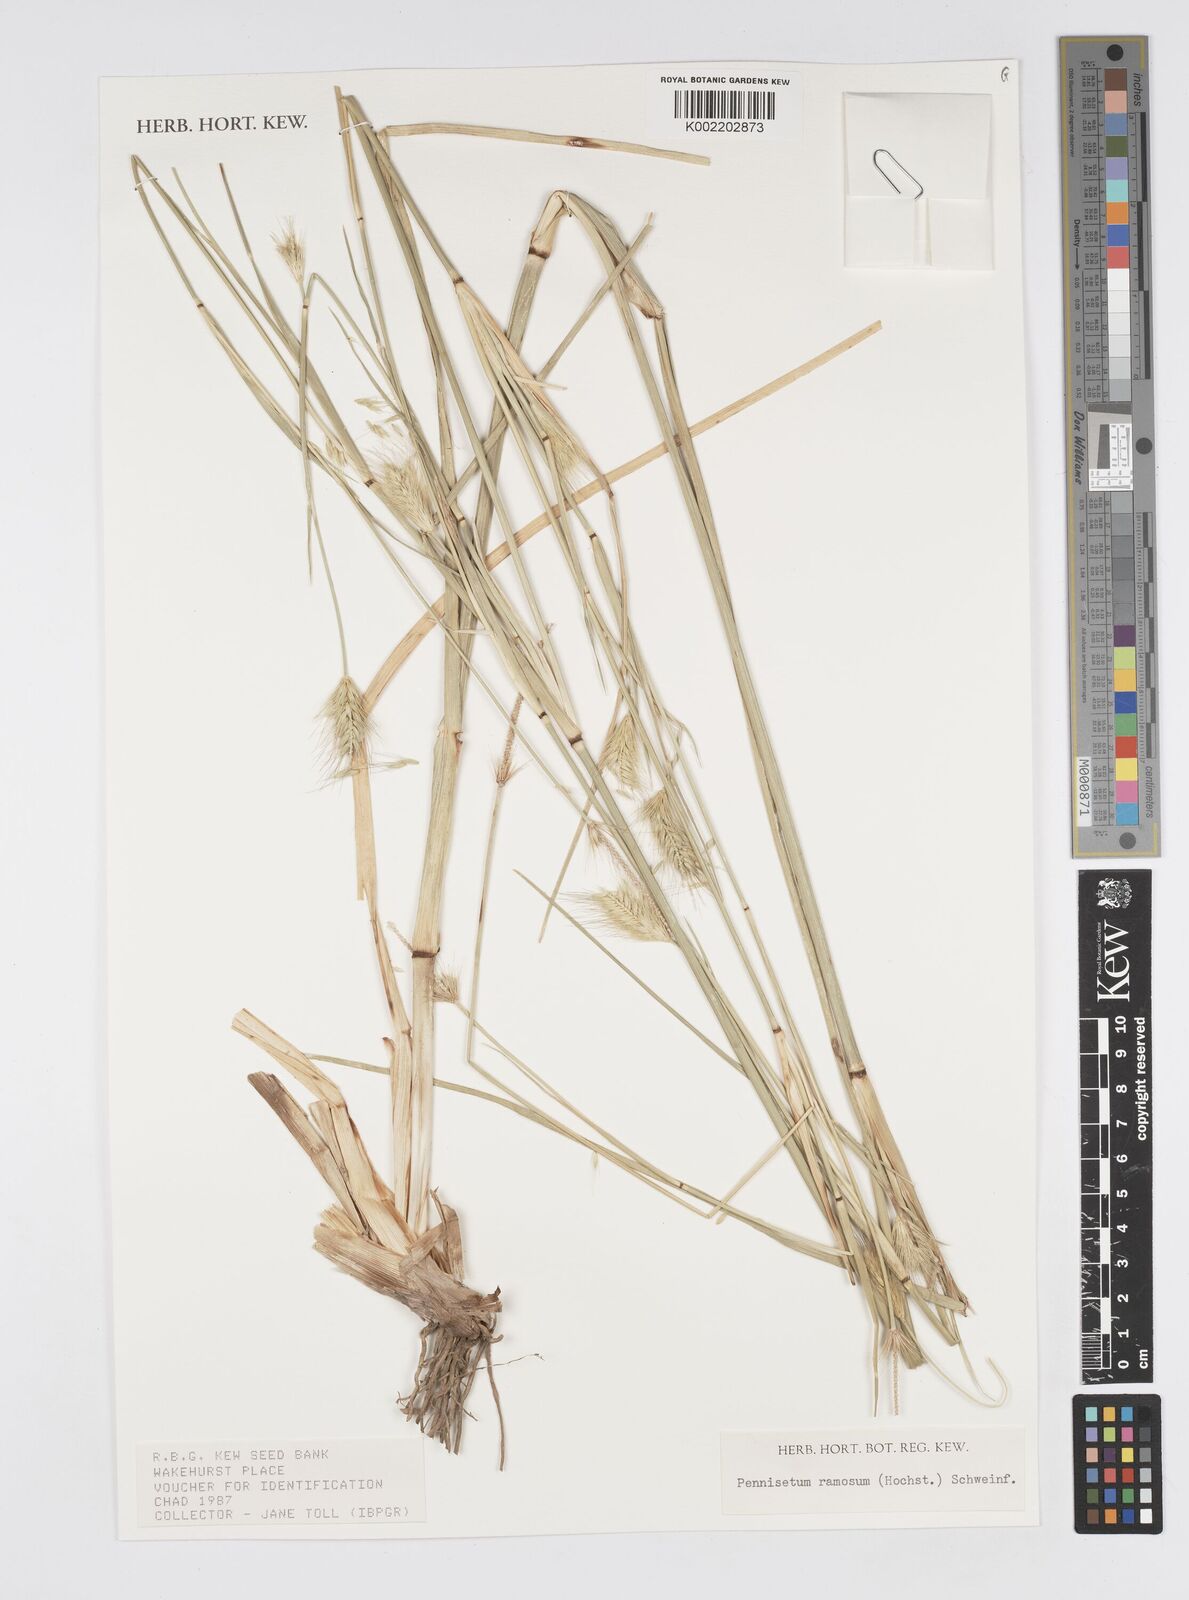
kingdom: Plantae
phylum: Tracheophyta
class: Liliopsida
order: Poales
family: Poaceae
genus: Cenchrus
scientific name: Cenchrus setosus
